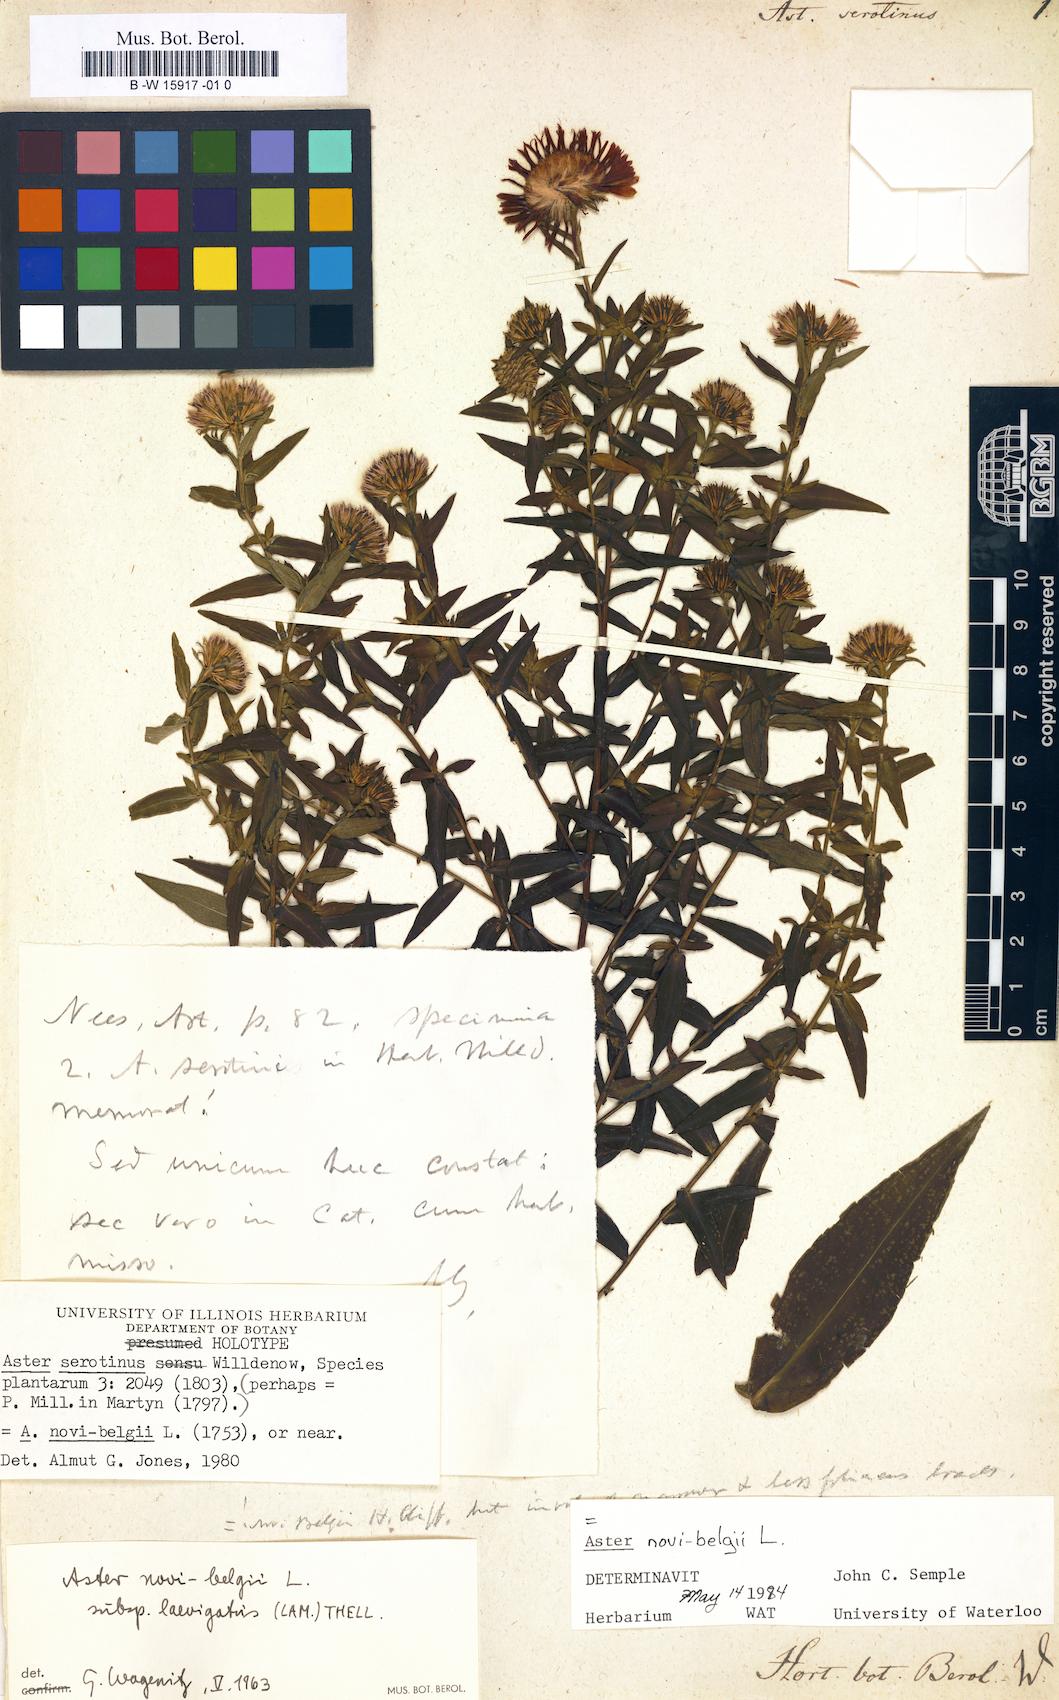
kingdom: Plantae
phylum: Tracheophyta
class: Magnoliopsida
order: Asterales
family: Asteraceae
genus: Symphyotrichum
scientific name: Symphyotrichum novi-belgii
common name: Michaelmas daisy
